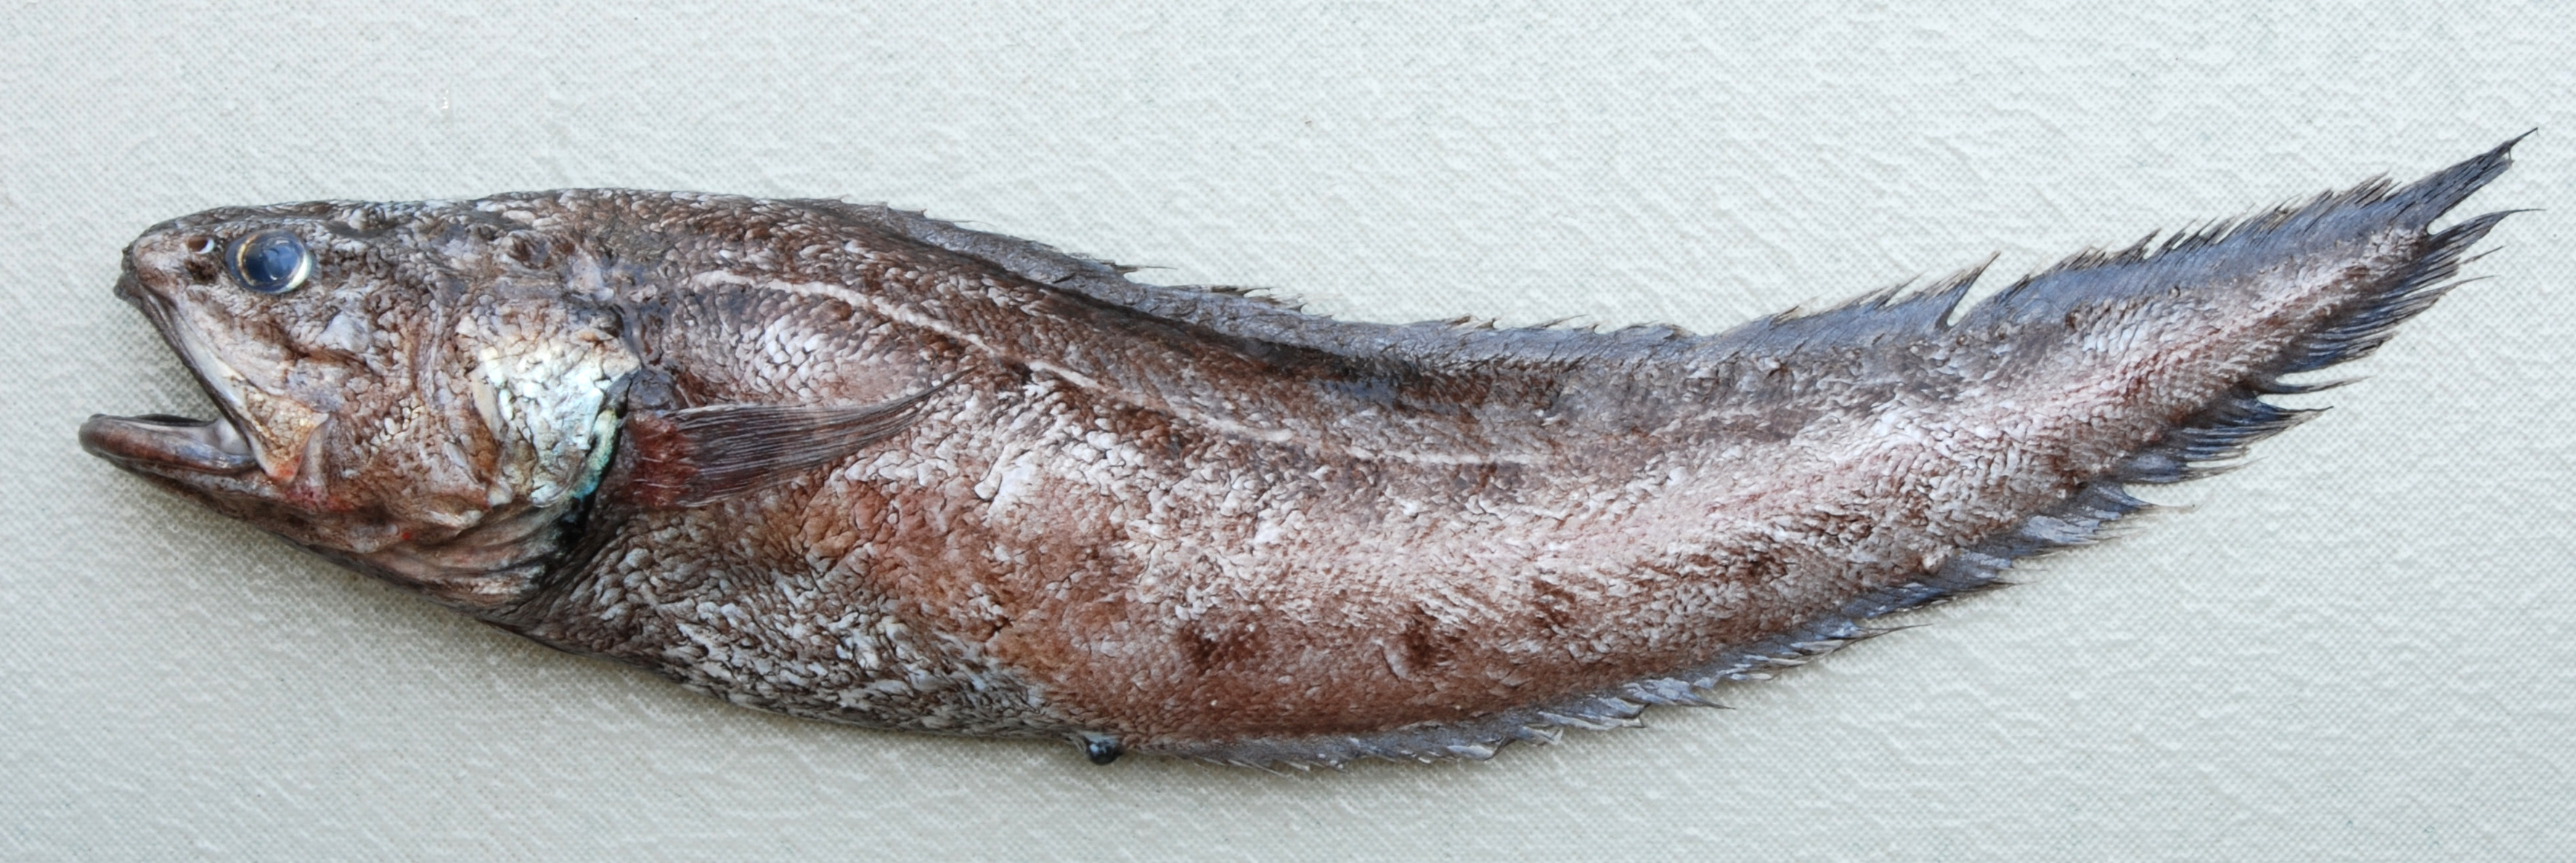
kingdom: Animalia
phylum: Chordata
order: Ophidiiformes
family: Ophidiidae
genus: Monomitopus
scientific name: Monomitopus nigripinnis
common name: Blackfin cusk
